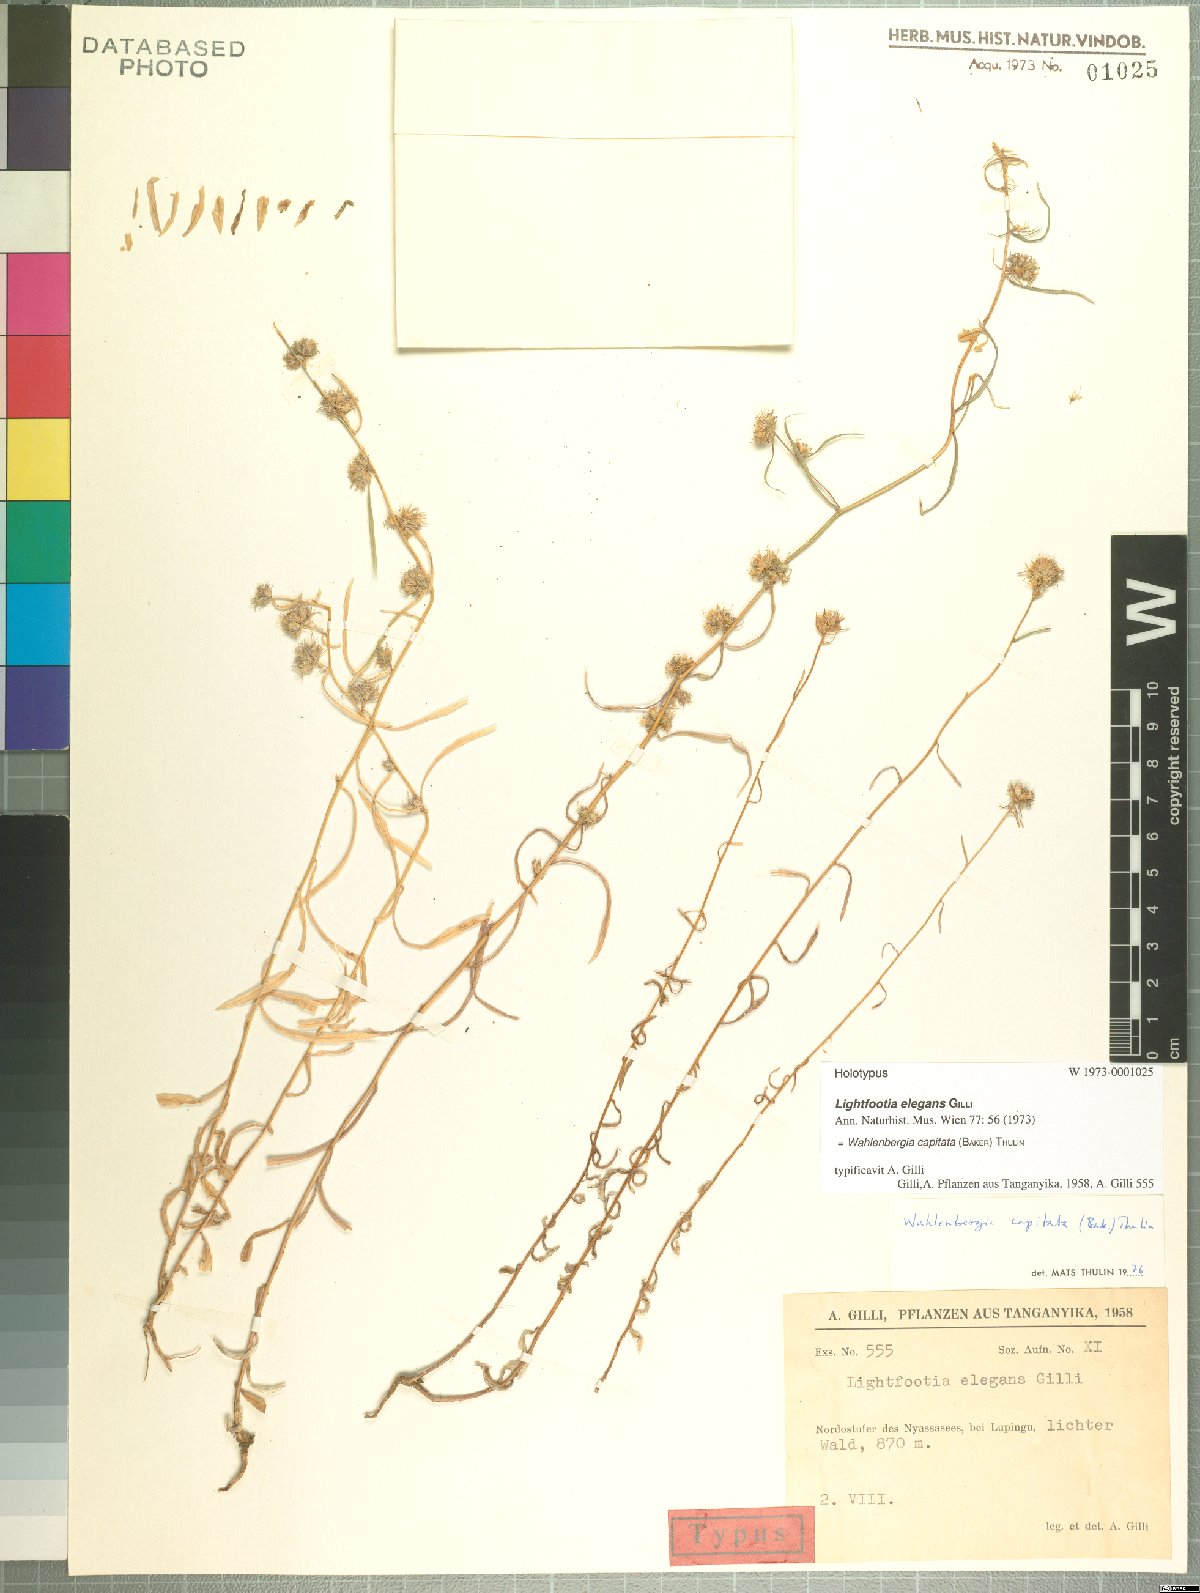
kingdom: Plantae
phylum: Tracheophyta
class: Magnoliopsida
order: Asterales
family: Campanulaceae
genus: Wahlenbergia
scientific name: Wahlenbergia capitata
